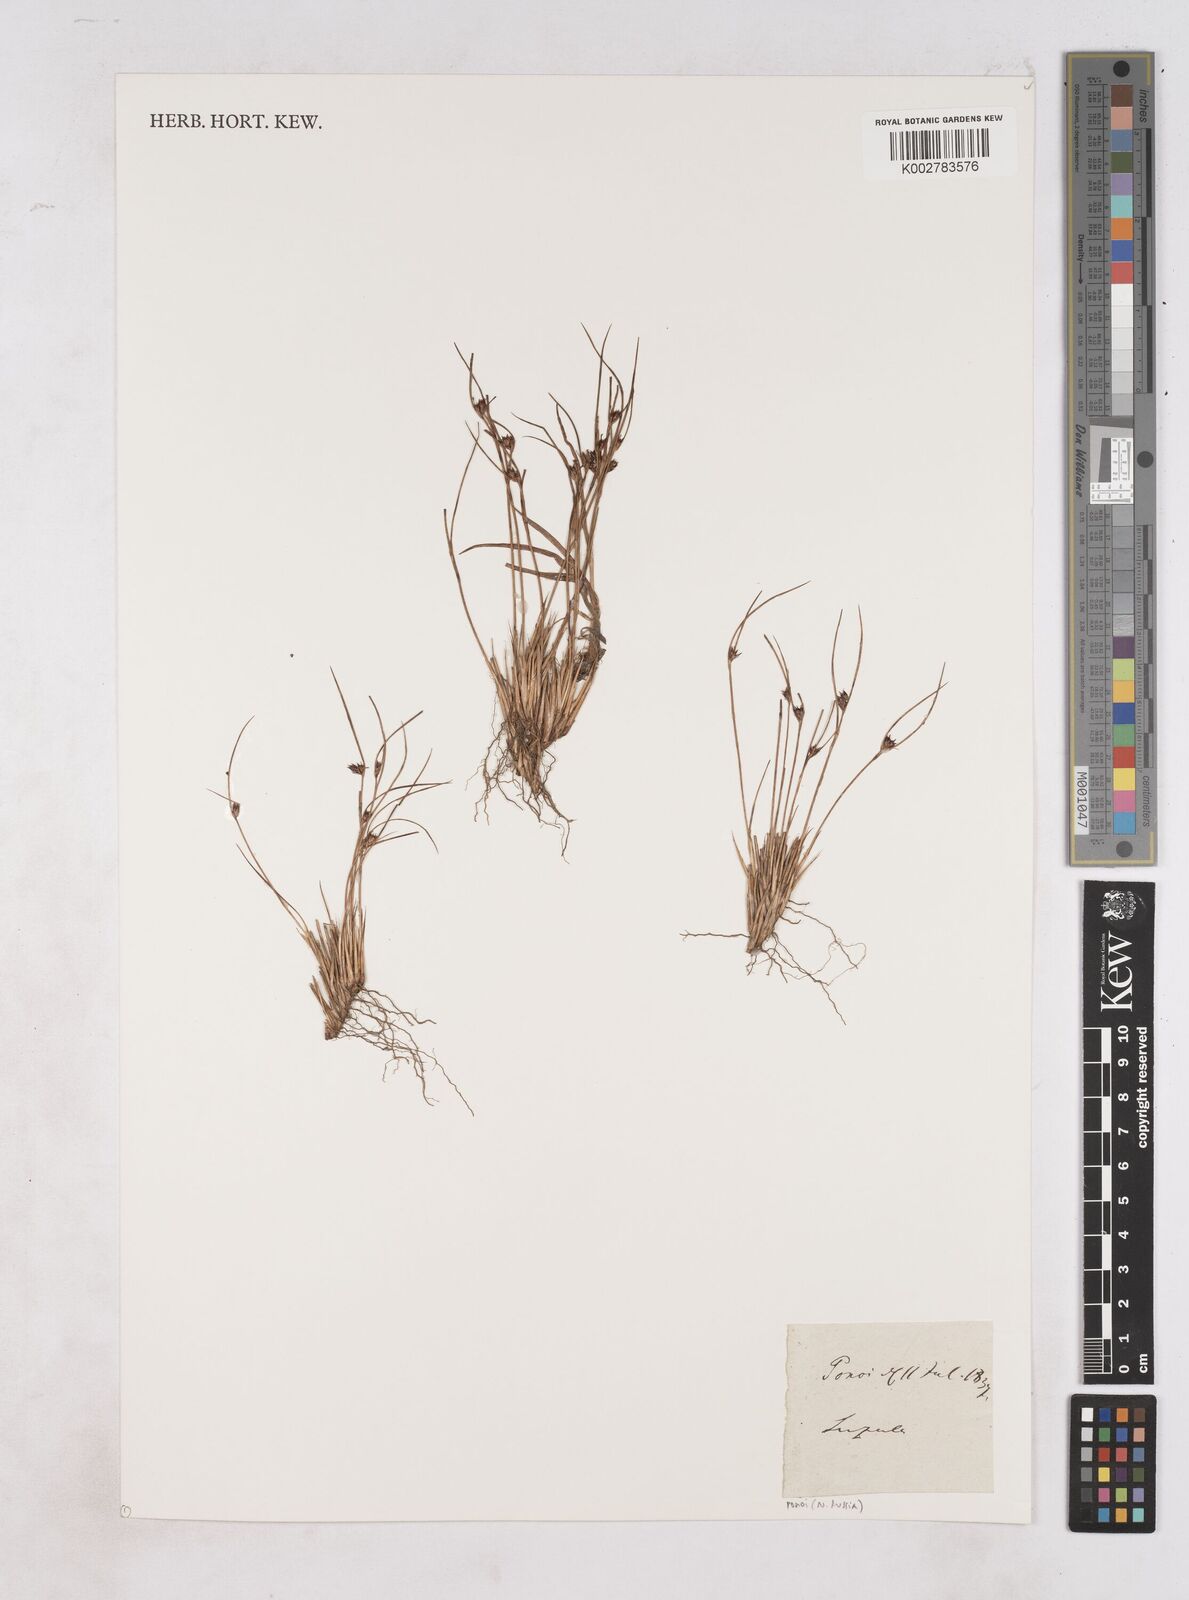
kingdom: Plantae
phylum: Tracheophyta
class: Liliopsida
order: Poales
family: Juncaceae
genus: Luzula
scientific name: Luzula
